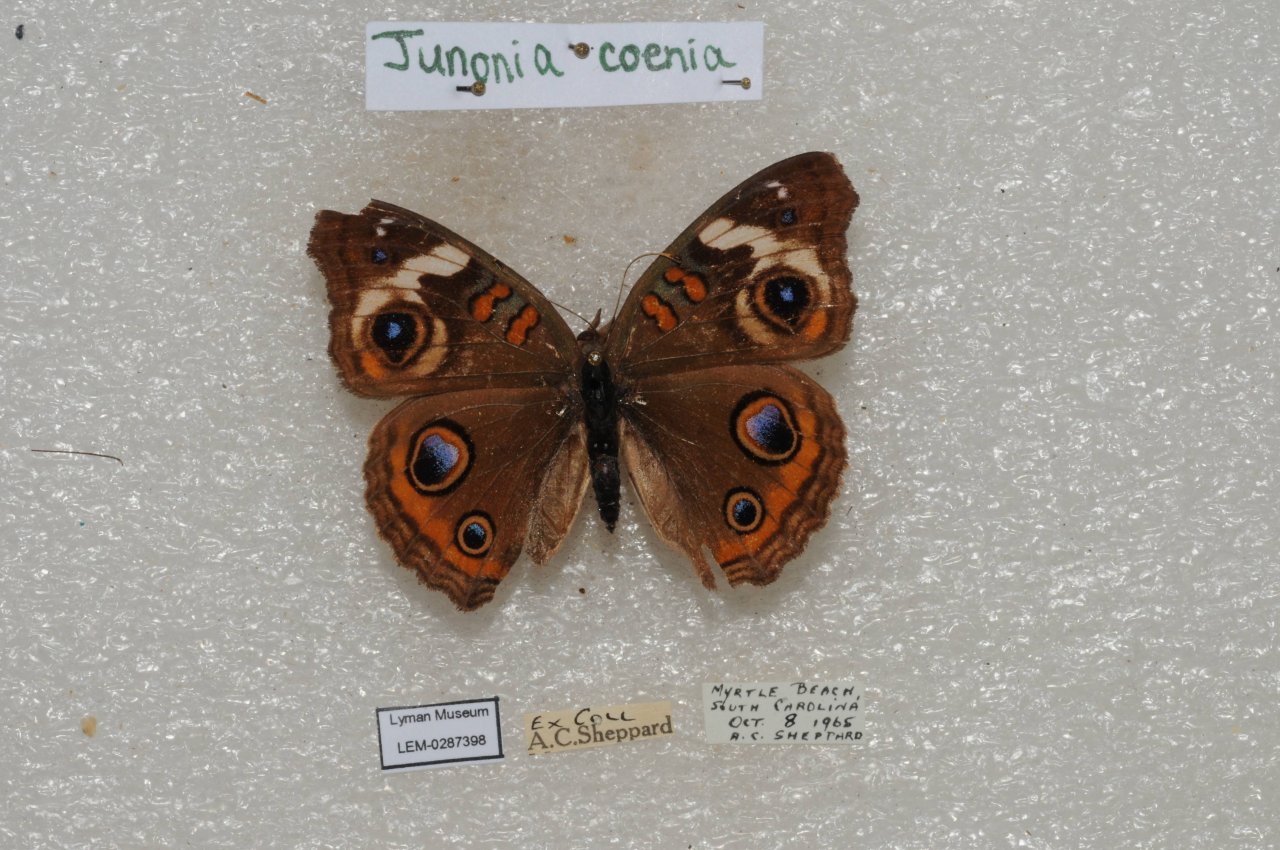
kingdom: Animalia
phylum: Arthropoda
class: Insecta
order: Lepidoptera
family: Nymphalidae
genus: Junonia
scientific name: Junonia coenia
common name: Common Buckeye
